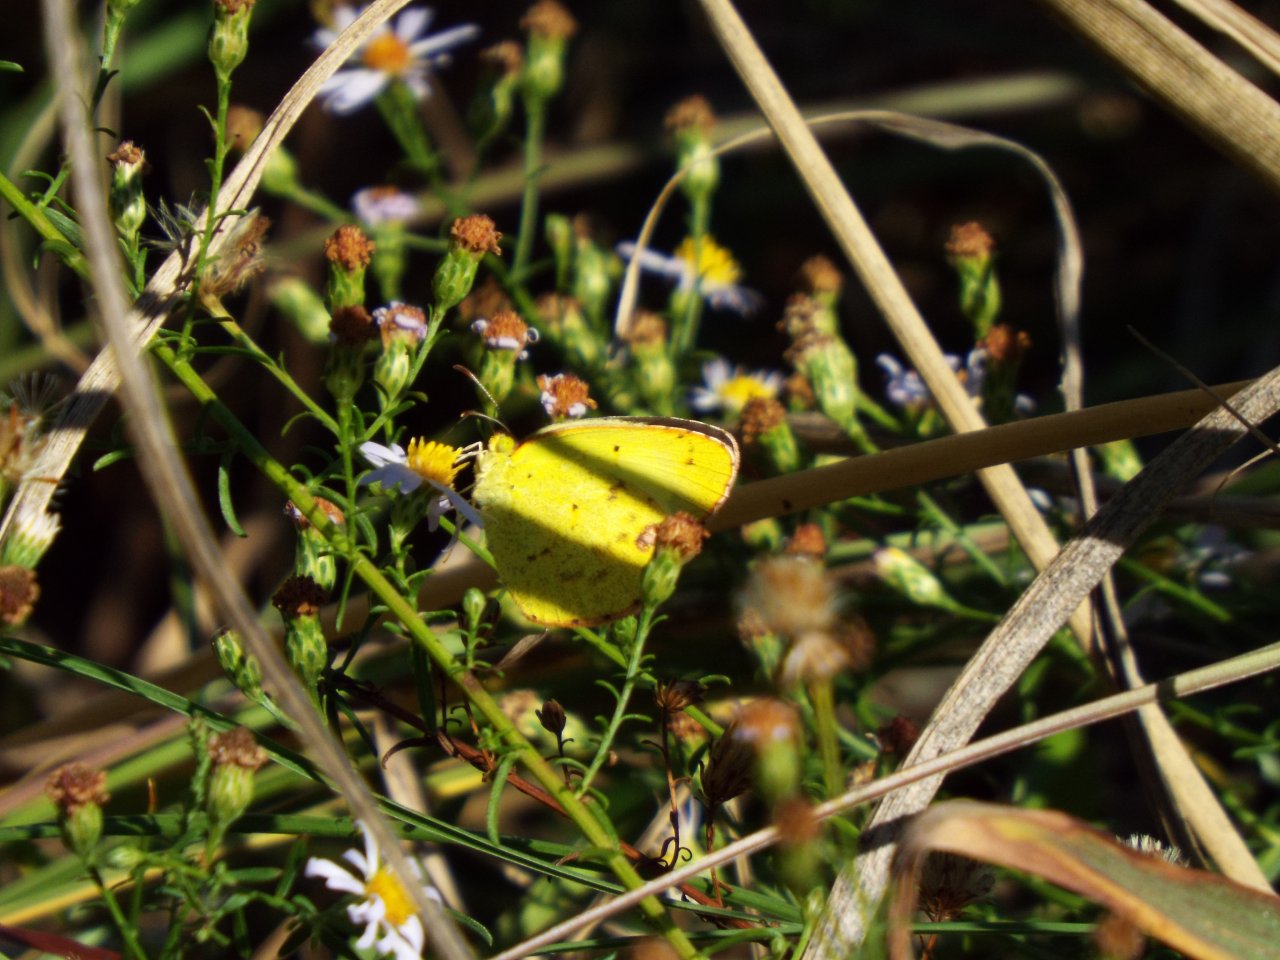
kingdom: Animalia
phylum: Arthropoda
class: Insecta
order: Lepidoptera
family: Pieridae
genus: Pyrisitia
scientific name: Pyrisitia lisa
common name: Little Yellow
